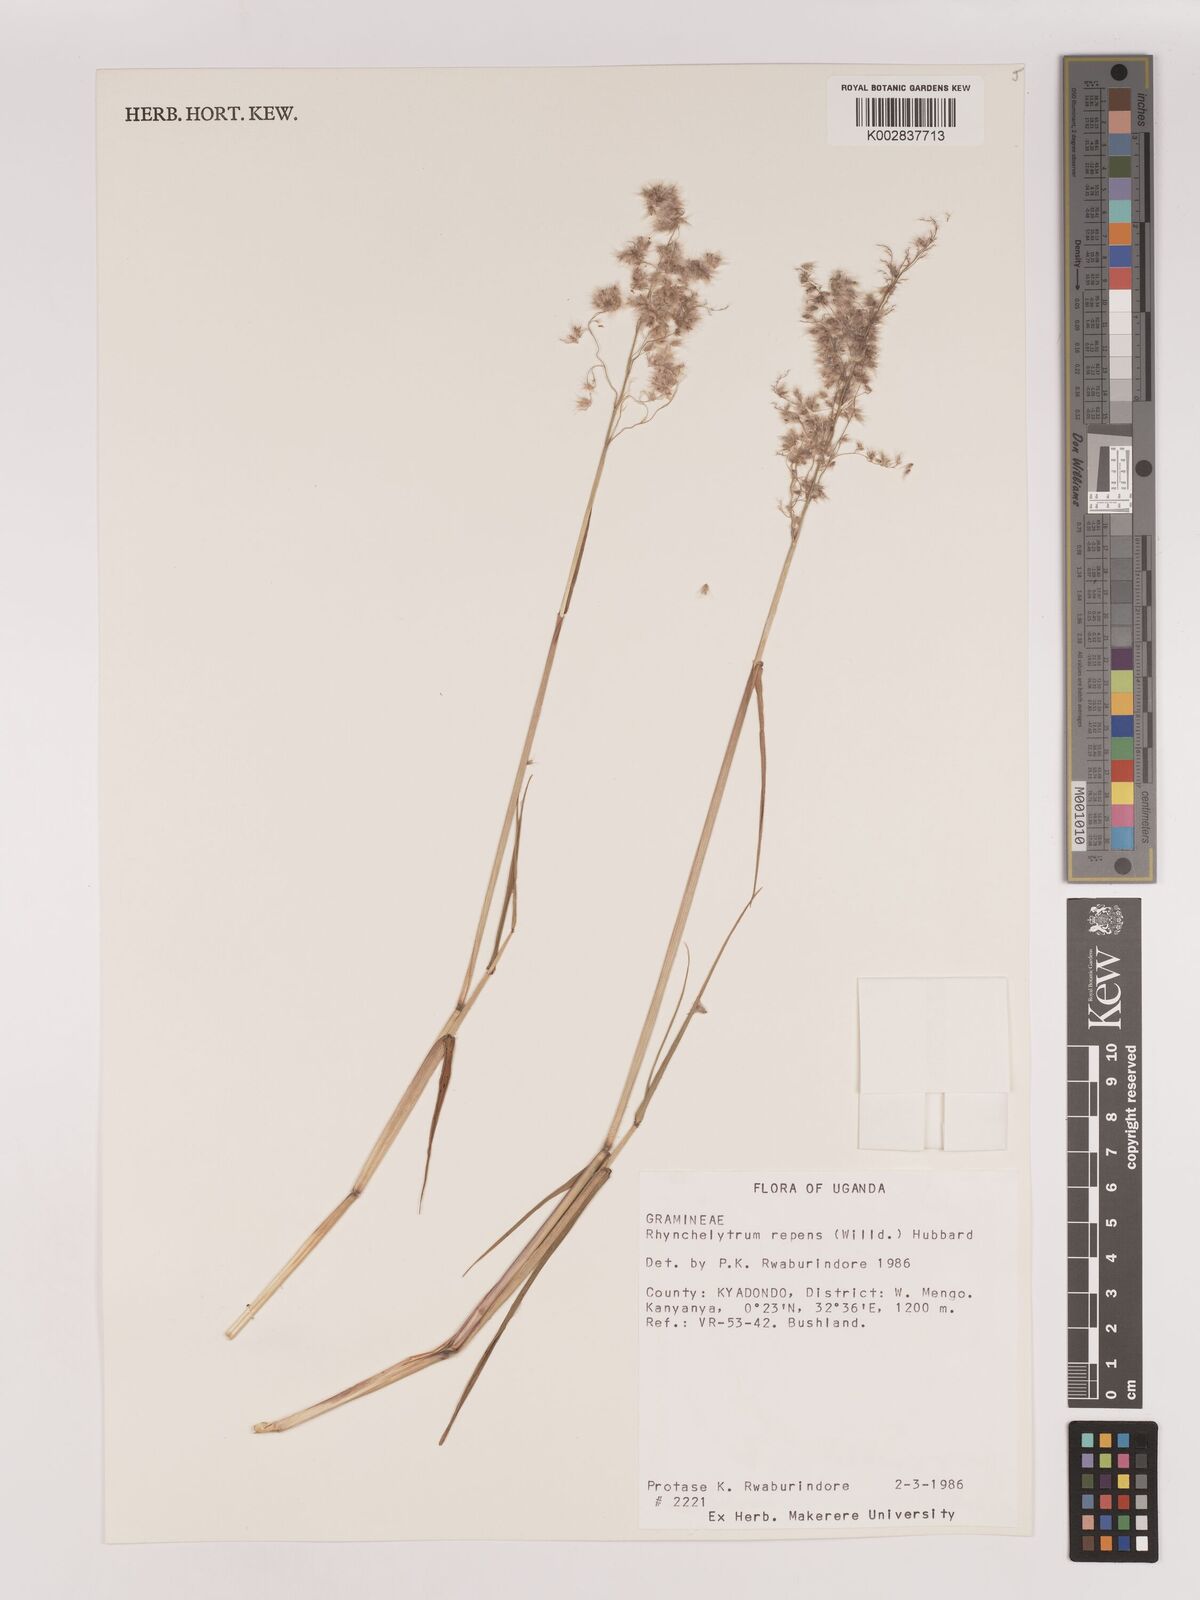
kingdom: Plantae
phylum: Tracheophyta
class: Liliopsida
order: Poales
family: Poaceae
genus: Melinis
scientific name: Melinis repens
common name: Rose natal grass
